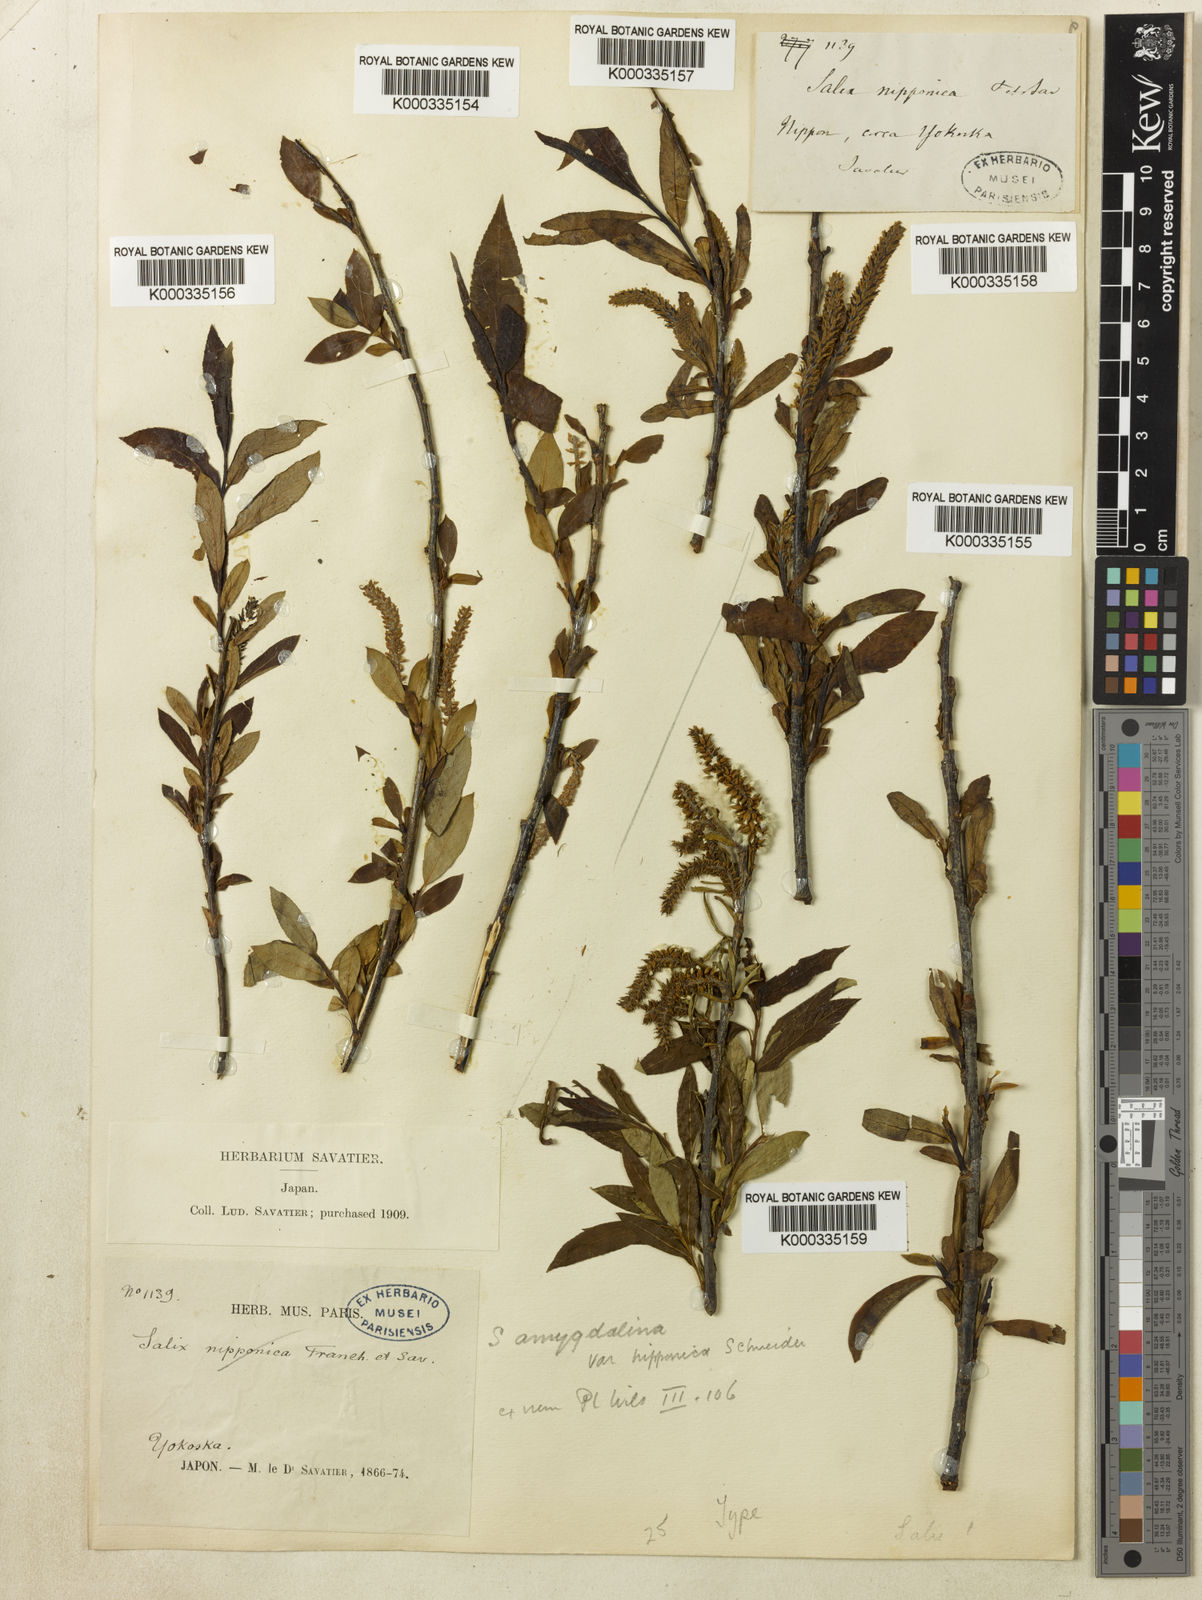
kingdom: Plantae
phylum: Tracheophyta
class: Magnoliopsida
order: Malpighiales
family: Salicaceae
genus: Salix
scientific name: Salix triandra
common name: Almond willow
